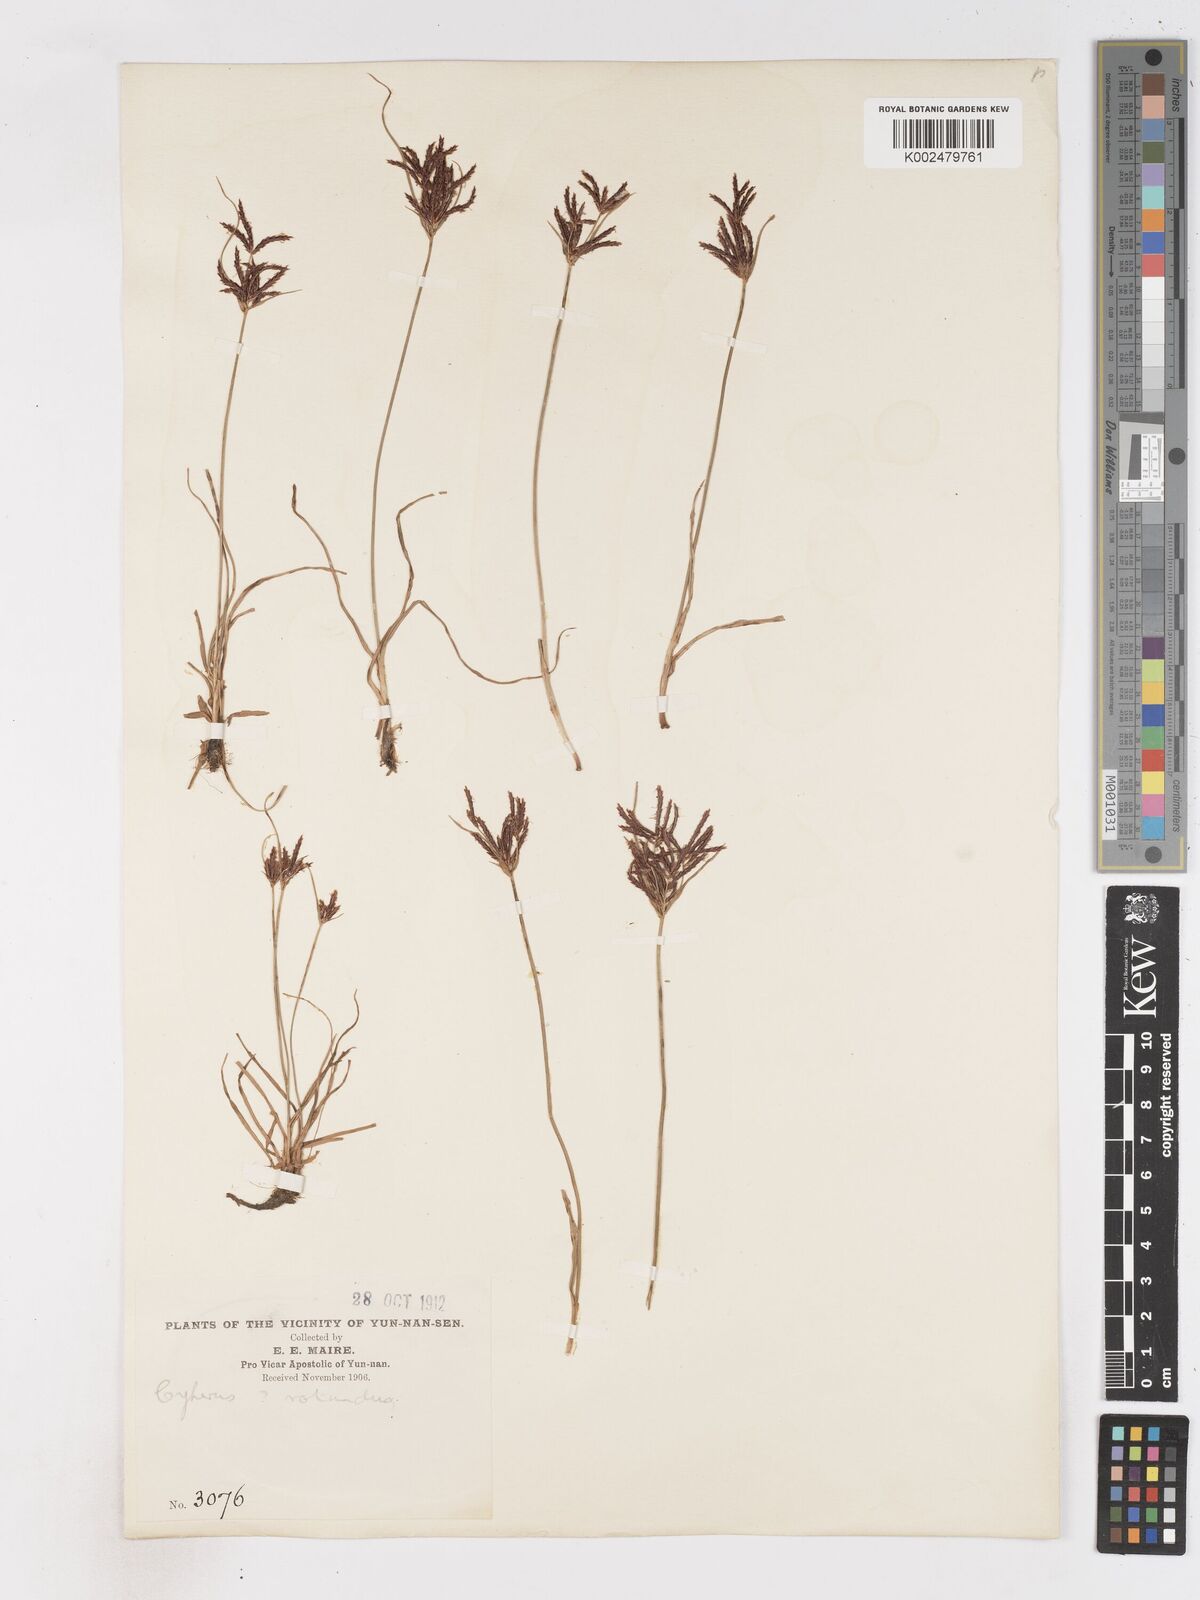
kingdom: Plantae
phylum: Tracheophyta
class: Liliopsida
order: Poales
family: Cyperaceae
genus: Cyperus
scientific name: Cyperus rotundus
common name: Nutgrass
